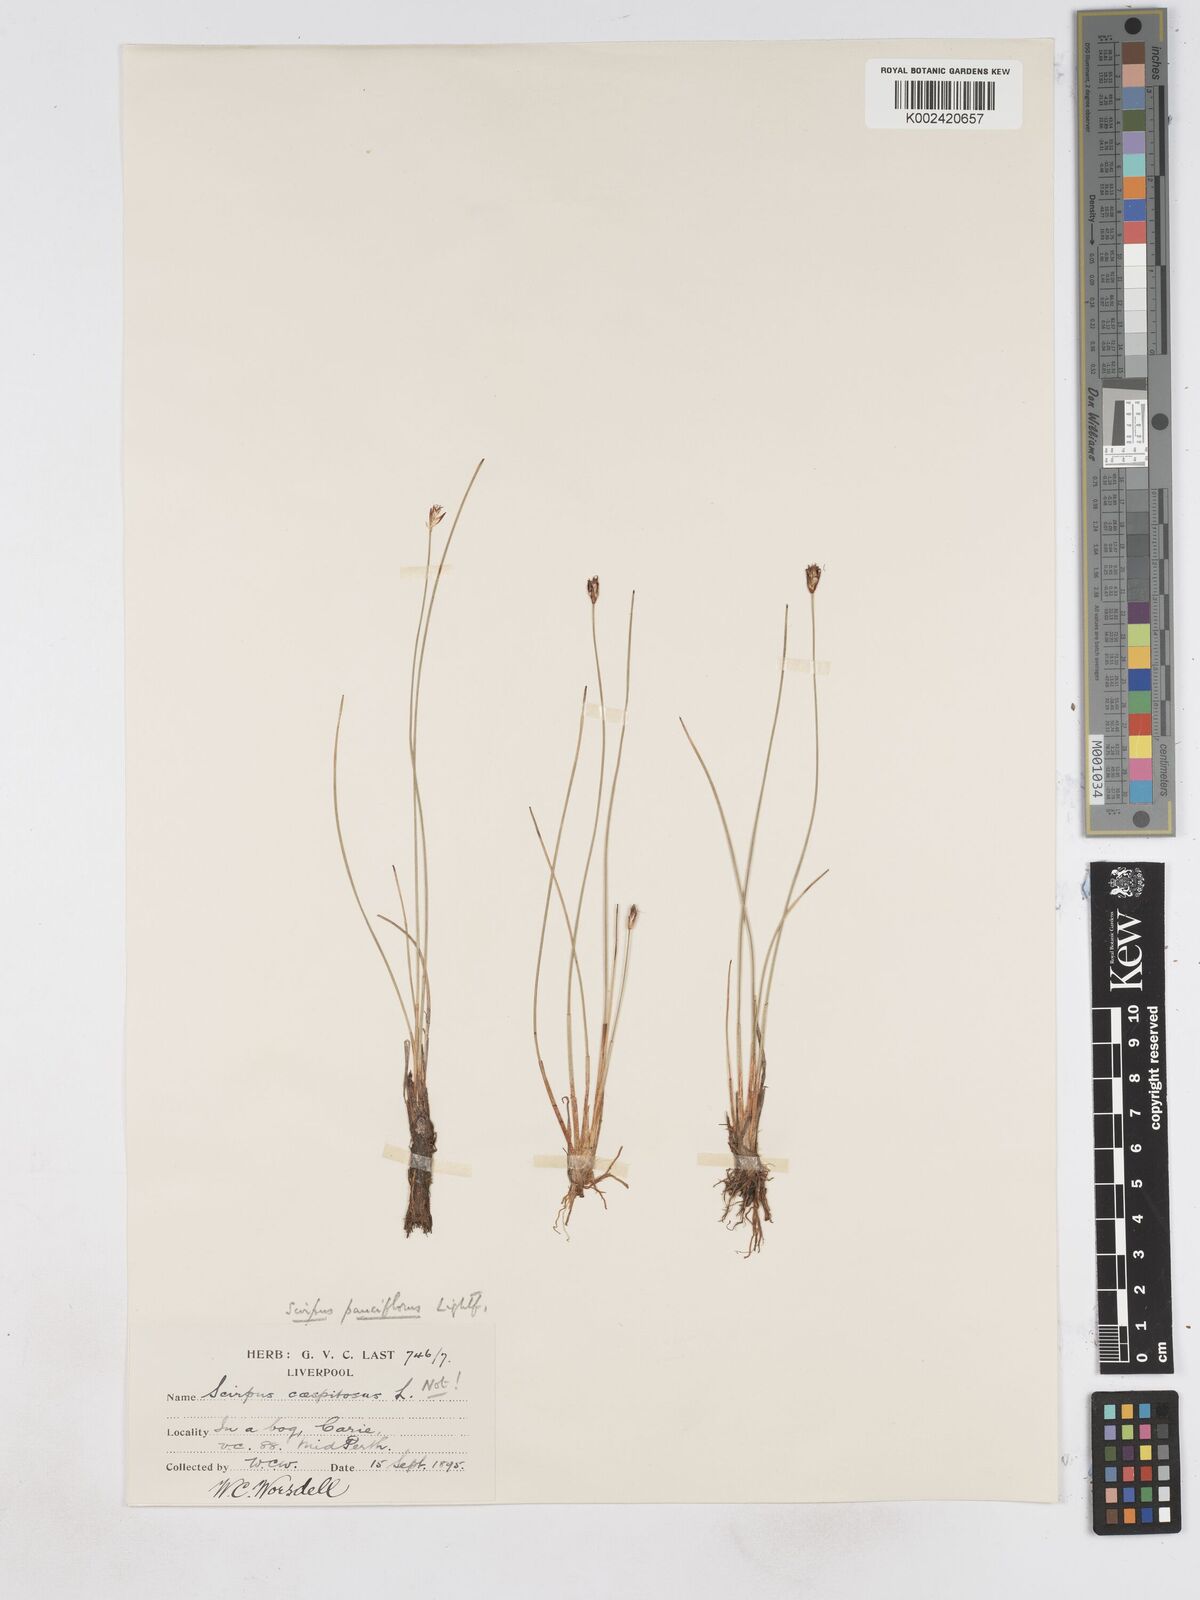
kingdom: Plantae
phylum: Tracheophyta
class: Liliopsida
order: Poales
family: Cyperaceae
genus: Eleocharis
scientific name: Eleocharis quinqueflora
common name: Few-flowered spike-rush
